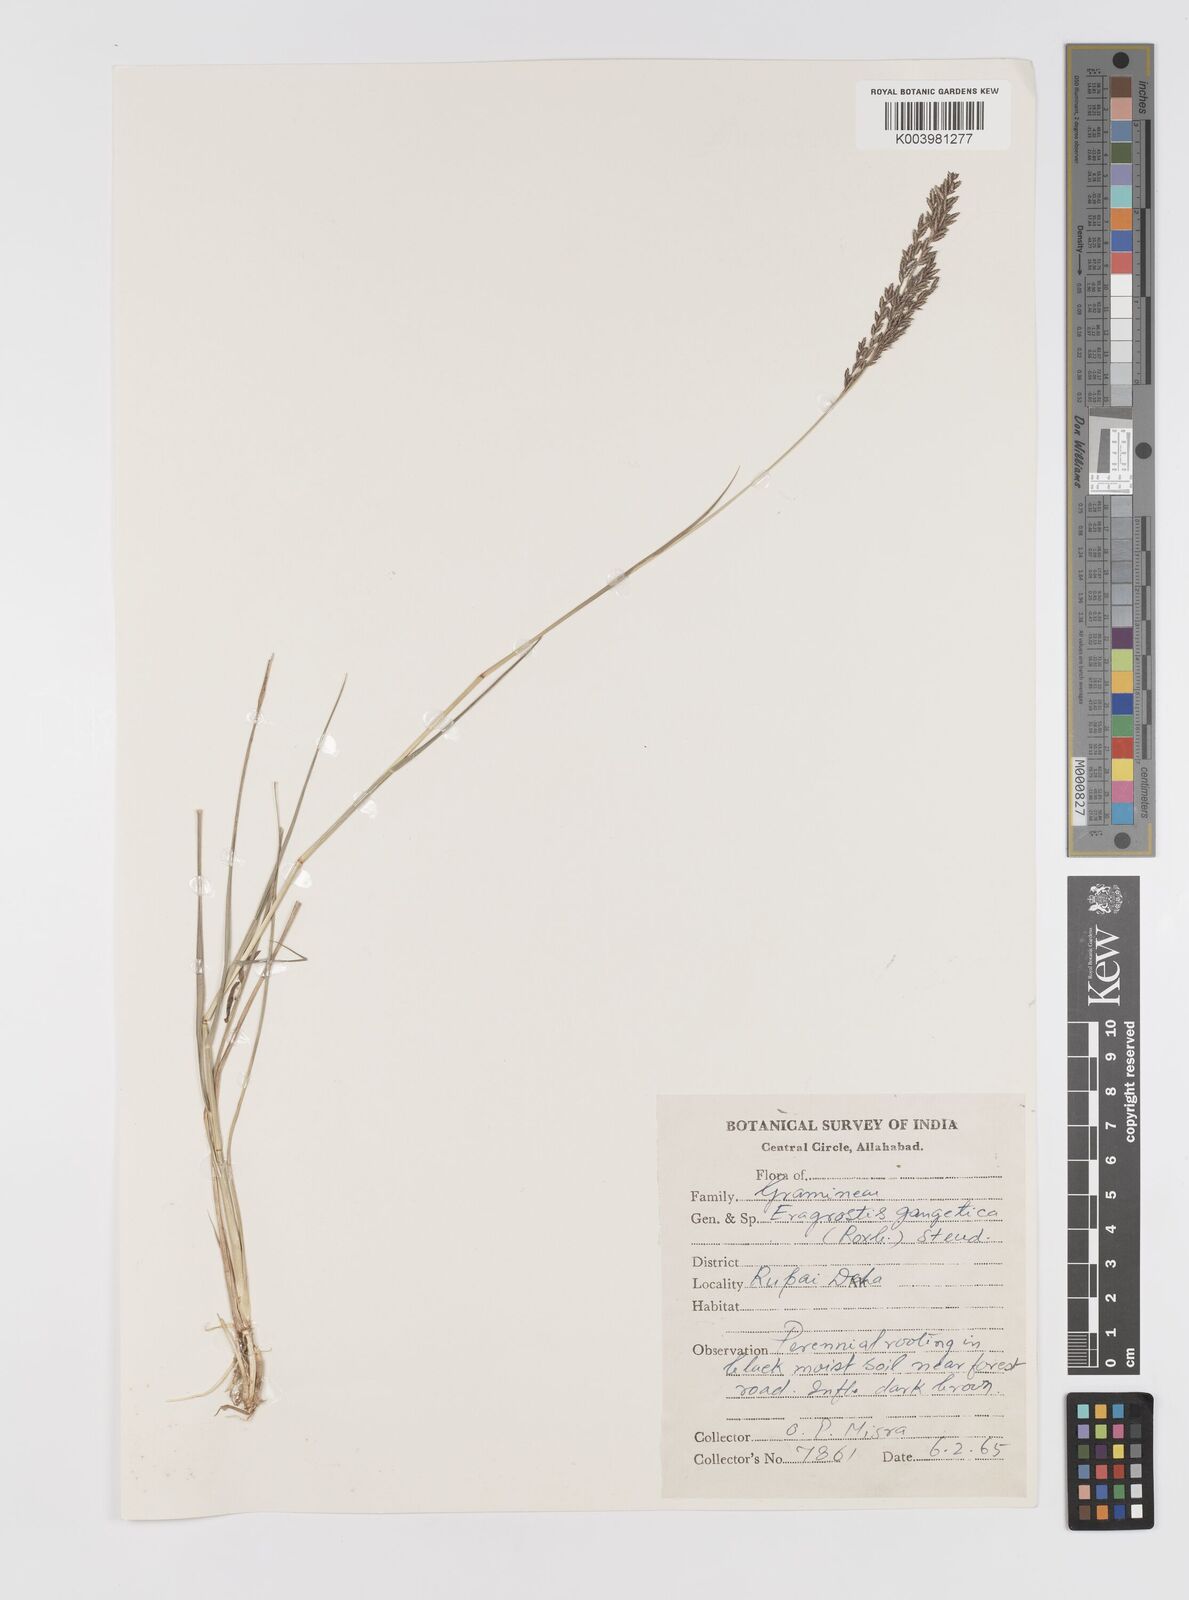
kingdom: Plantae
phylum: Tracheophyta
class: Liliopsida
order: Poales
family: Poaceae
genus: Eragrostis
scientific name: Eragrostis gangetica
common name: Slimflower lovegrass
